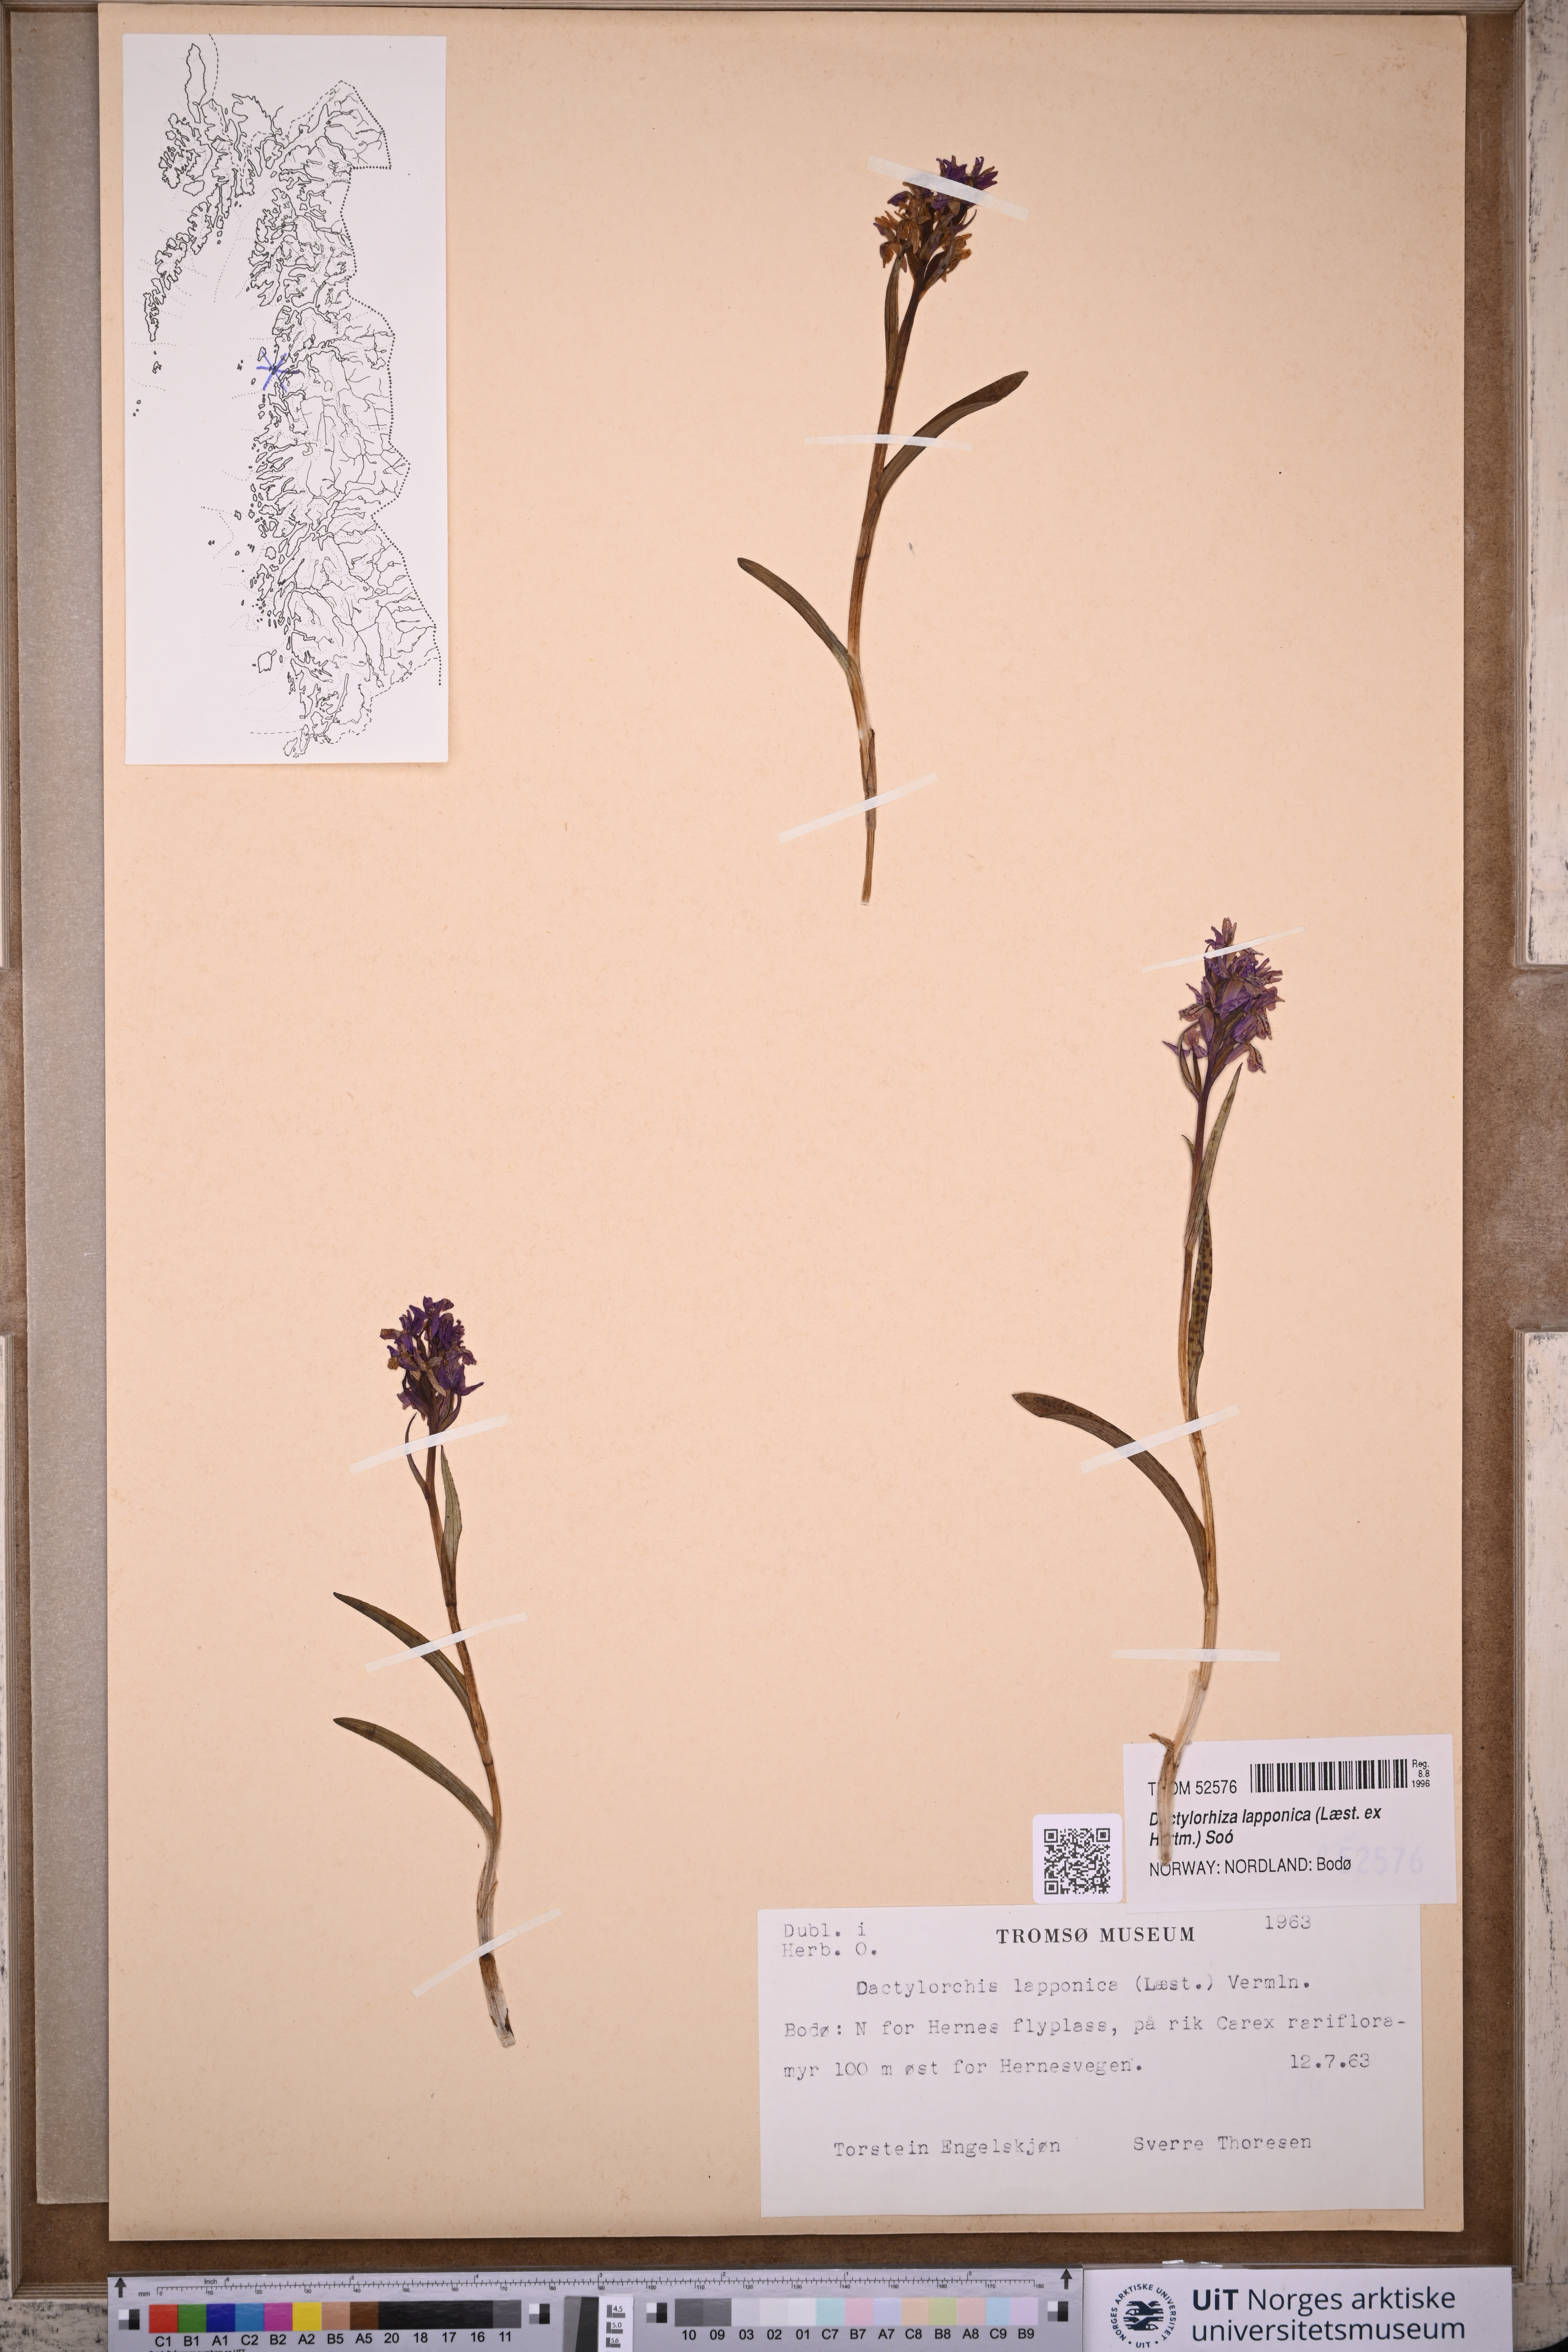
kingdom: Plantae
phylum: Tracheophyta
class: Liliopsida
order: Asparagales
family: Orchidaceae
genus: Dactylorhiza
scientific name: Dactylorhiza majalis
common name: Marsh orchid
